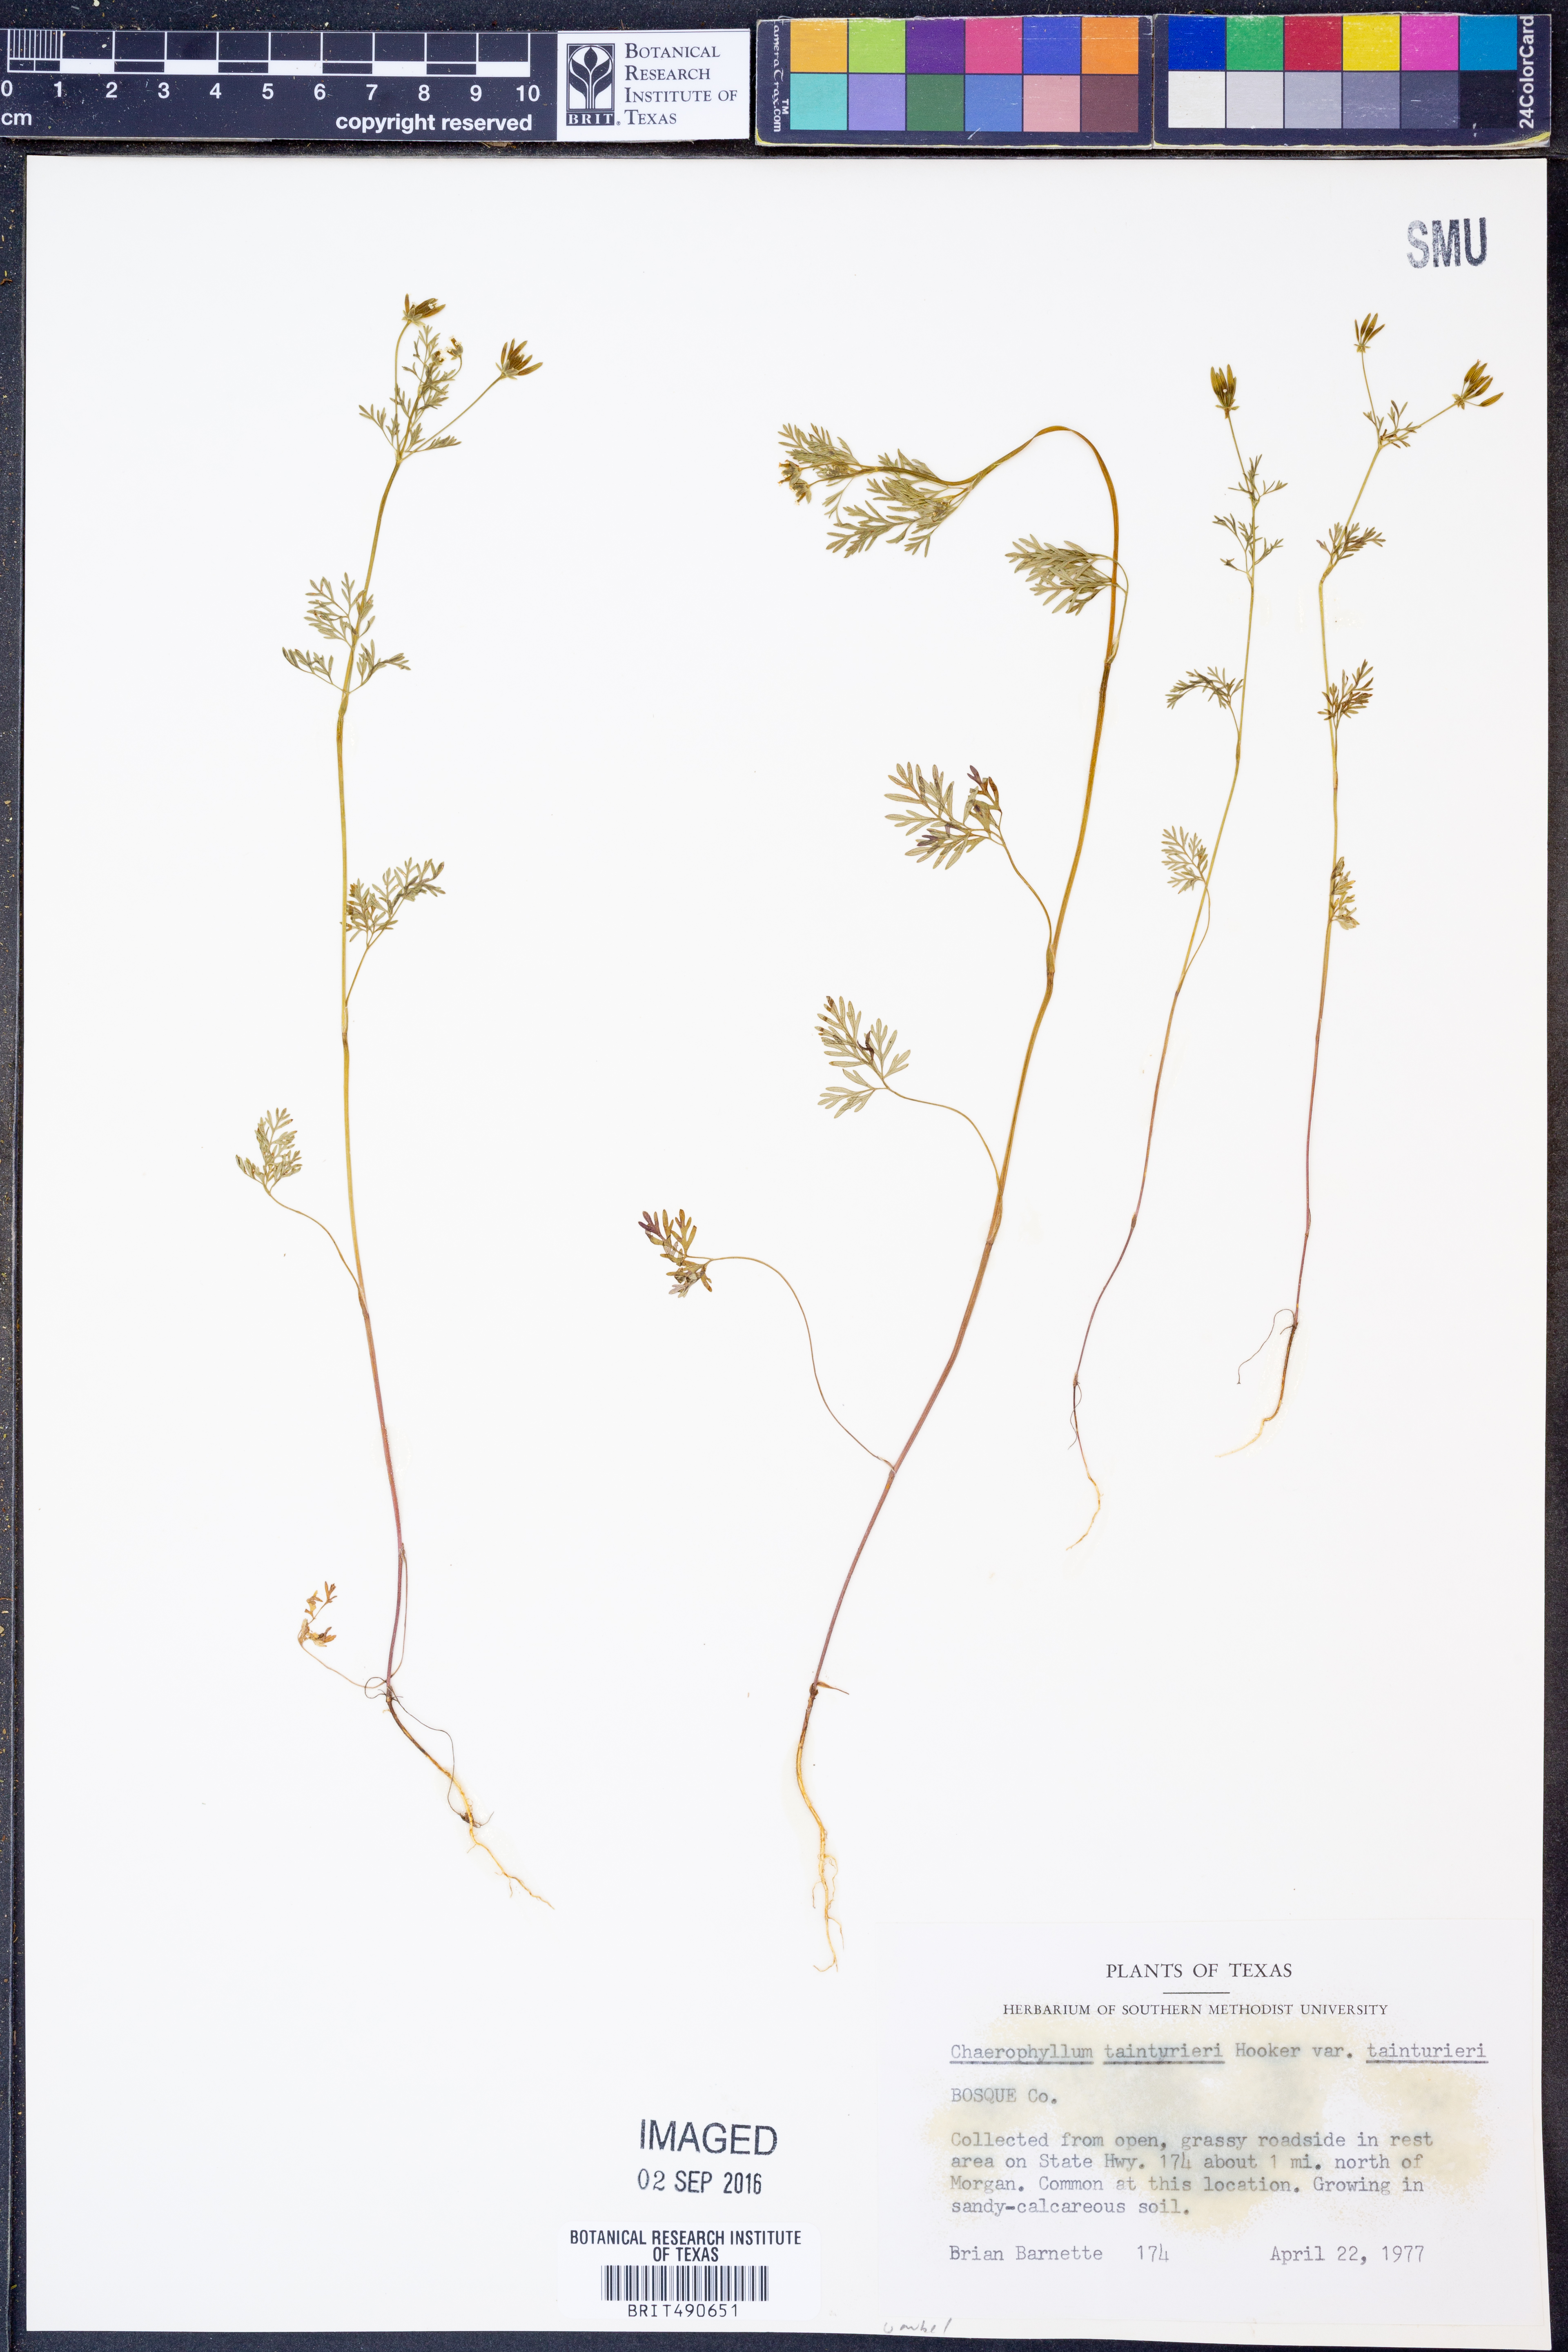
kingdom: Plantae
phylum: Tracheophyta
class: Magnoliopsida
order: Apiales
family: Apiaceae
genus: Chaerophyllum
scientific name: Chaerophyllum tainturieri
